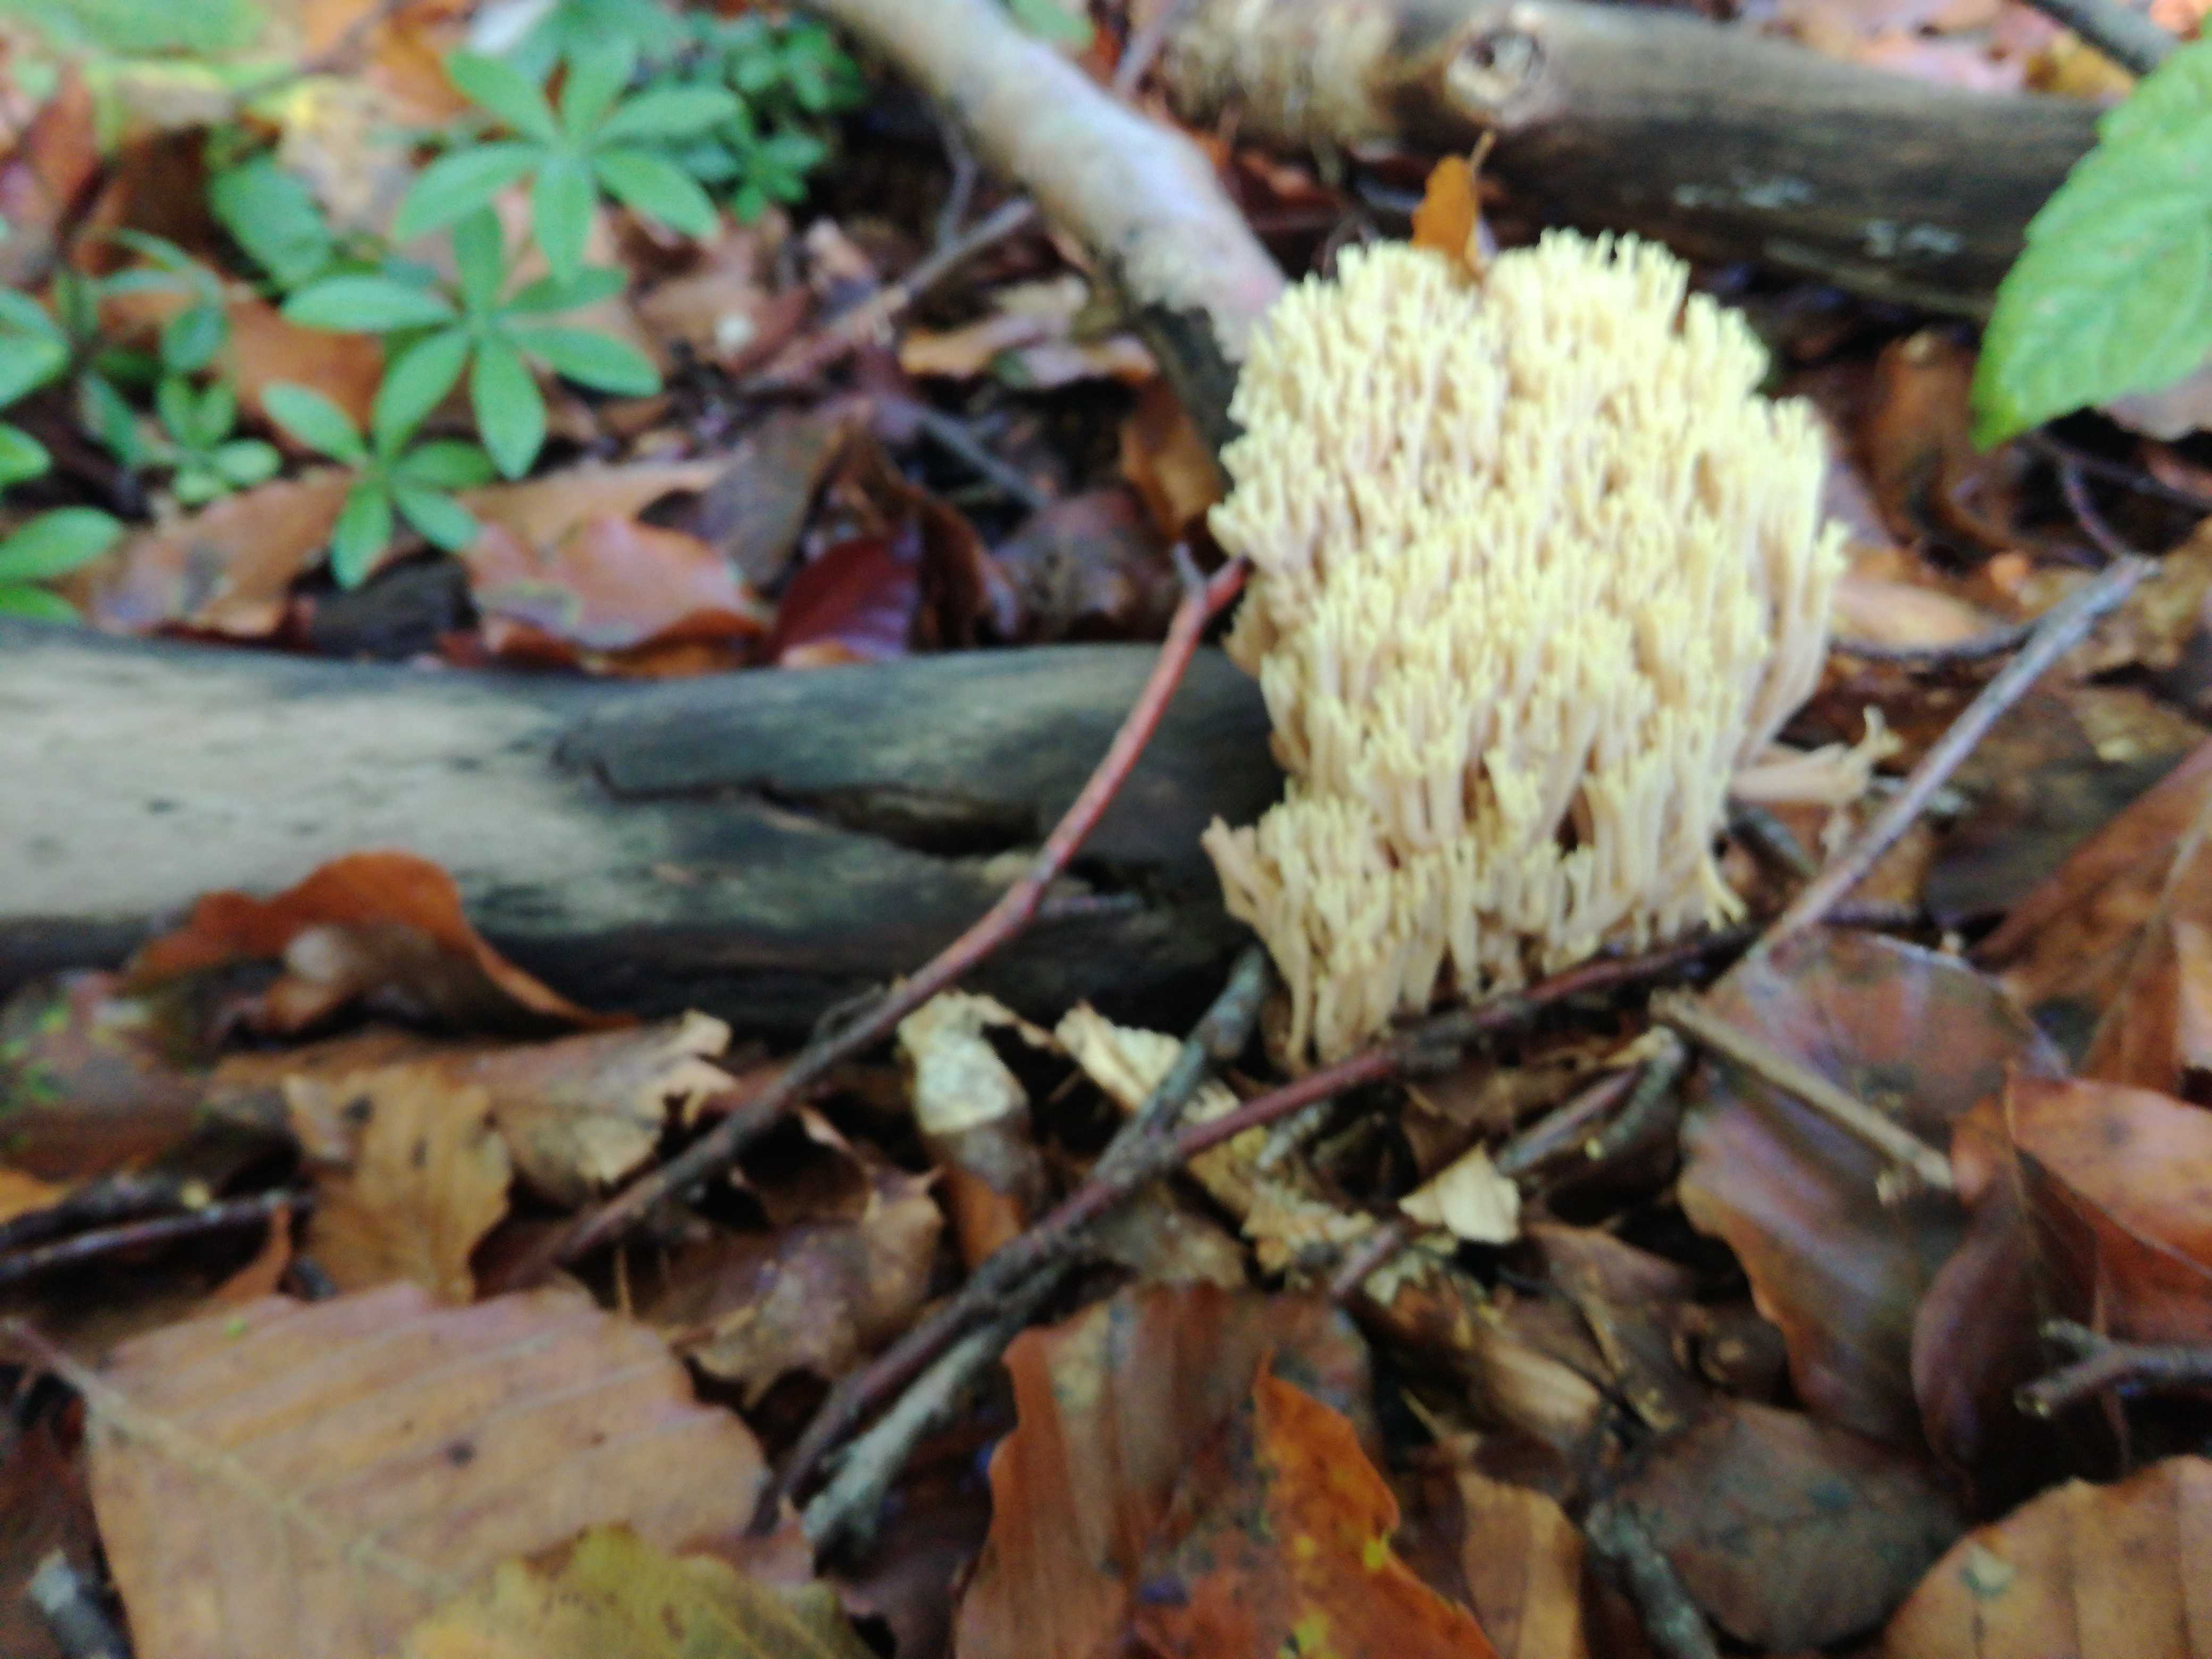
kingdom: Fungi
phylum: Basidiomycota
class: Agaricomycetes
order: Gomphales
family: Gomphaceae
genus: Ramaria
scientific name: Ramaria stricta
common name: rank koralsvamp
